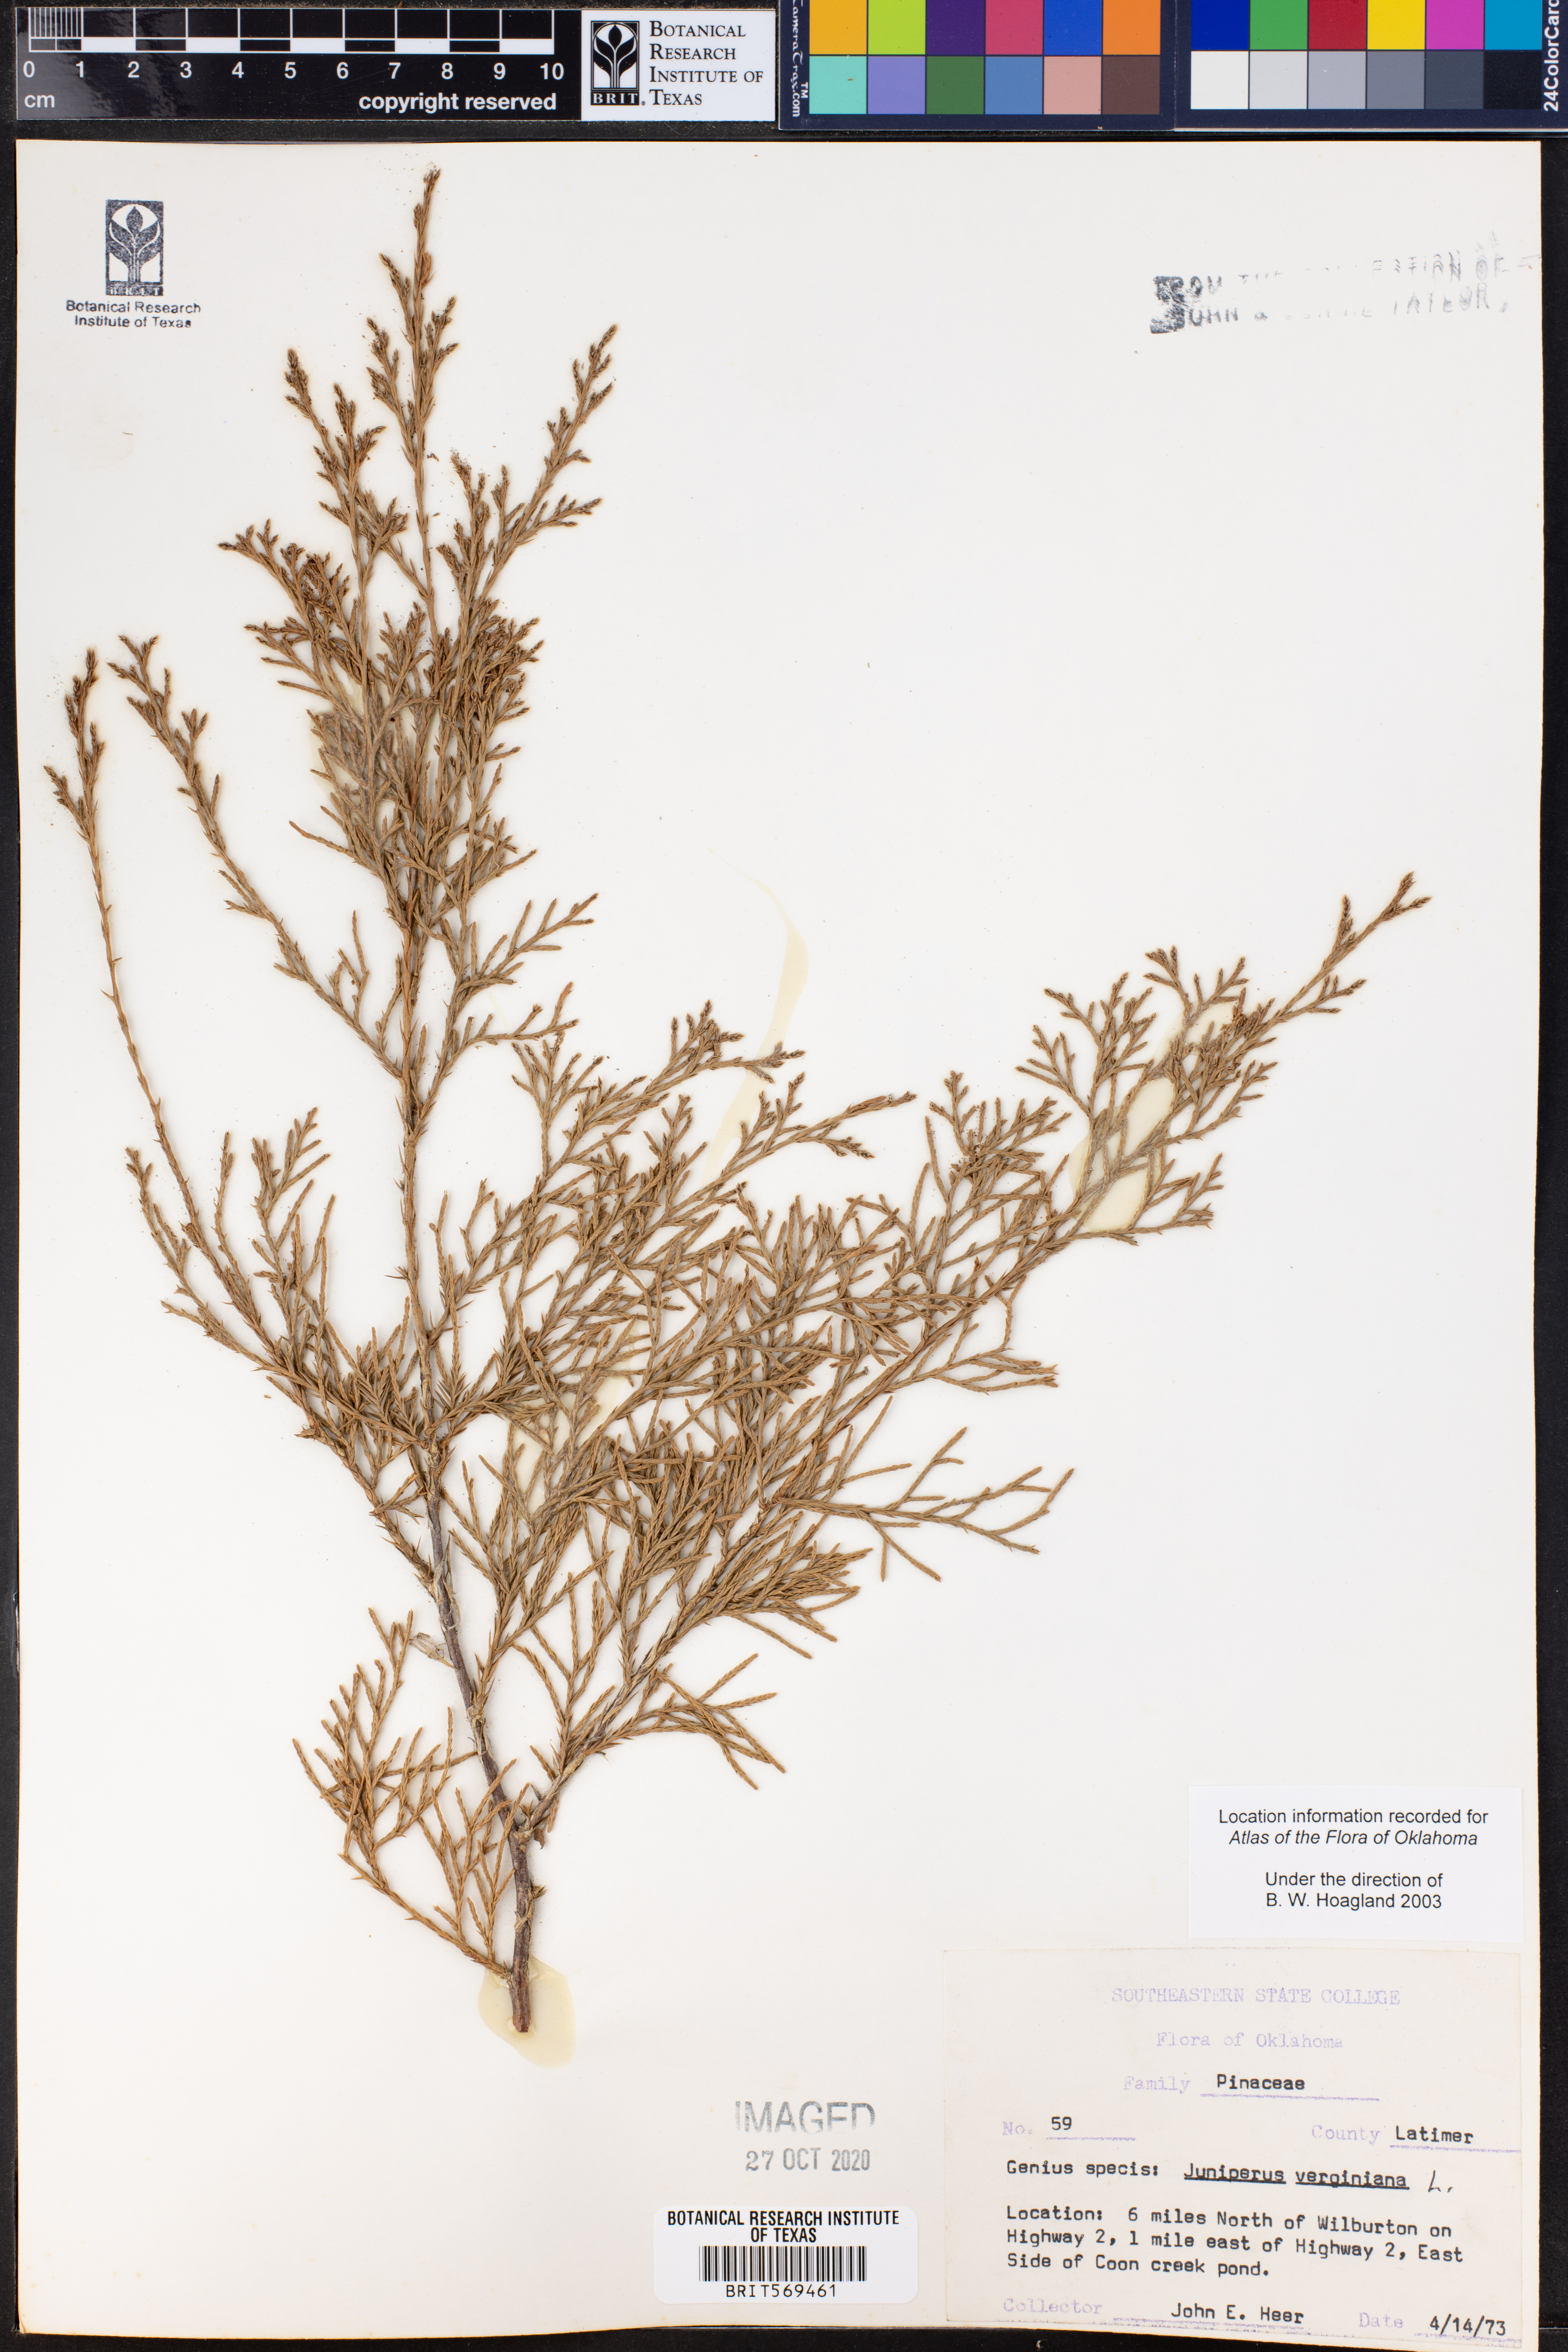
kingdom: Plantae
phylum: Tracheophyta
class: Pinopsida
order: Pinales
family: Cupressaceae
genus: Juniperus
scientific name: Juniperus virginiana
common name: Red juniper
